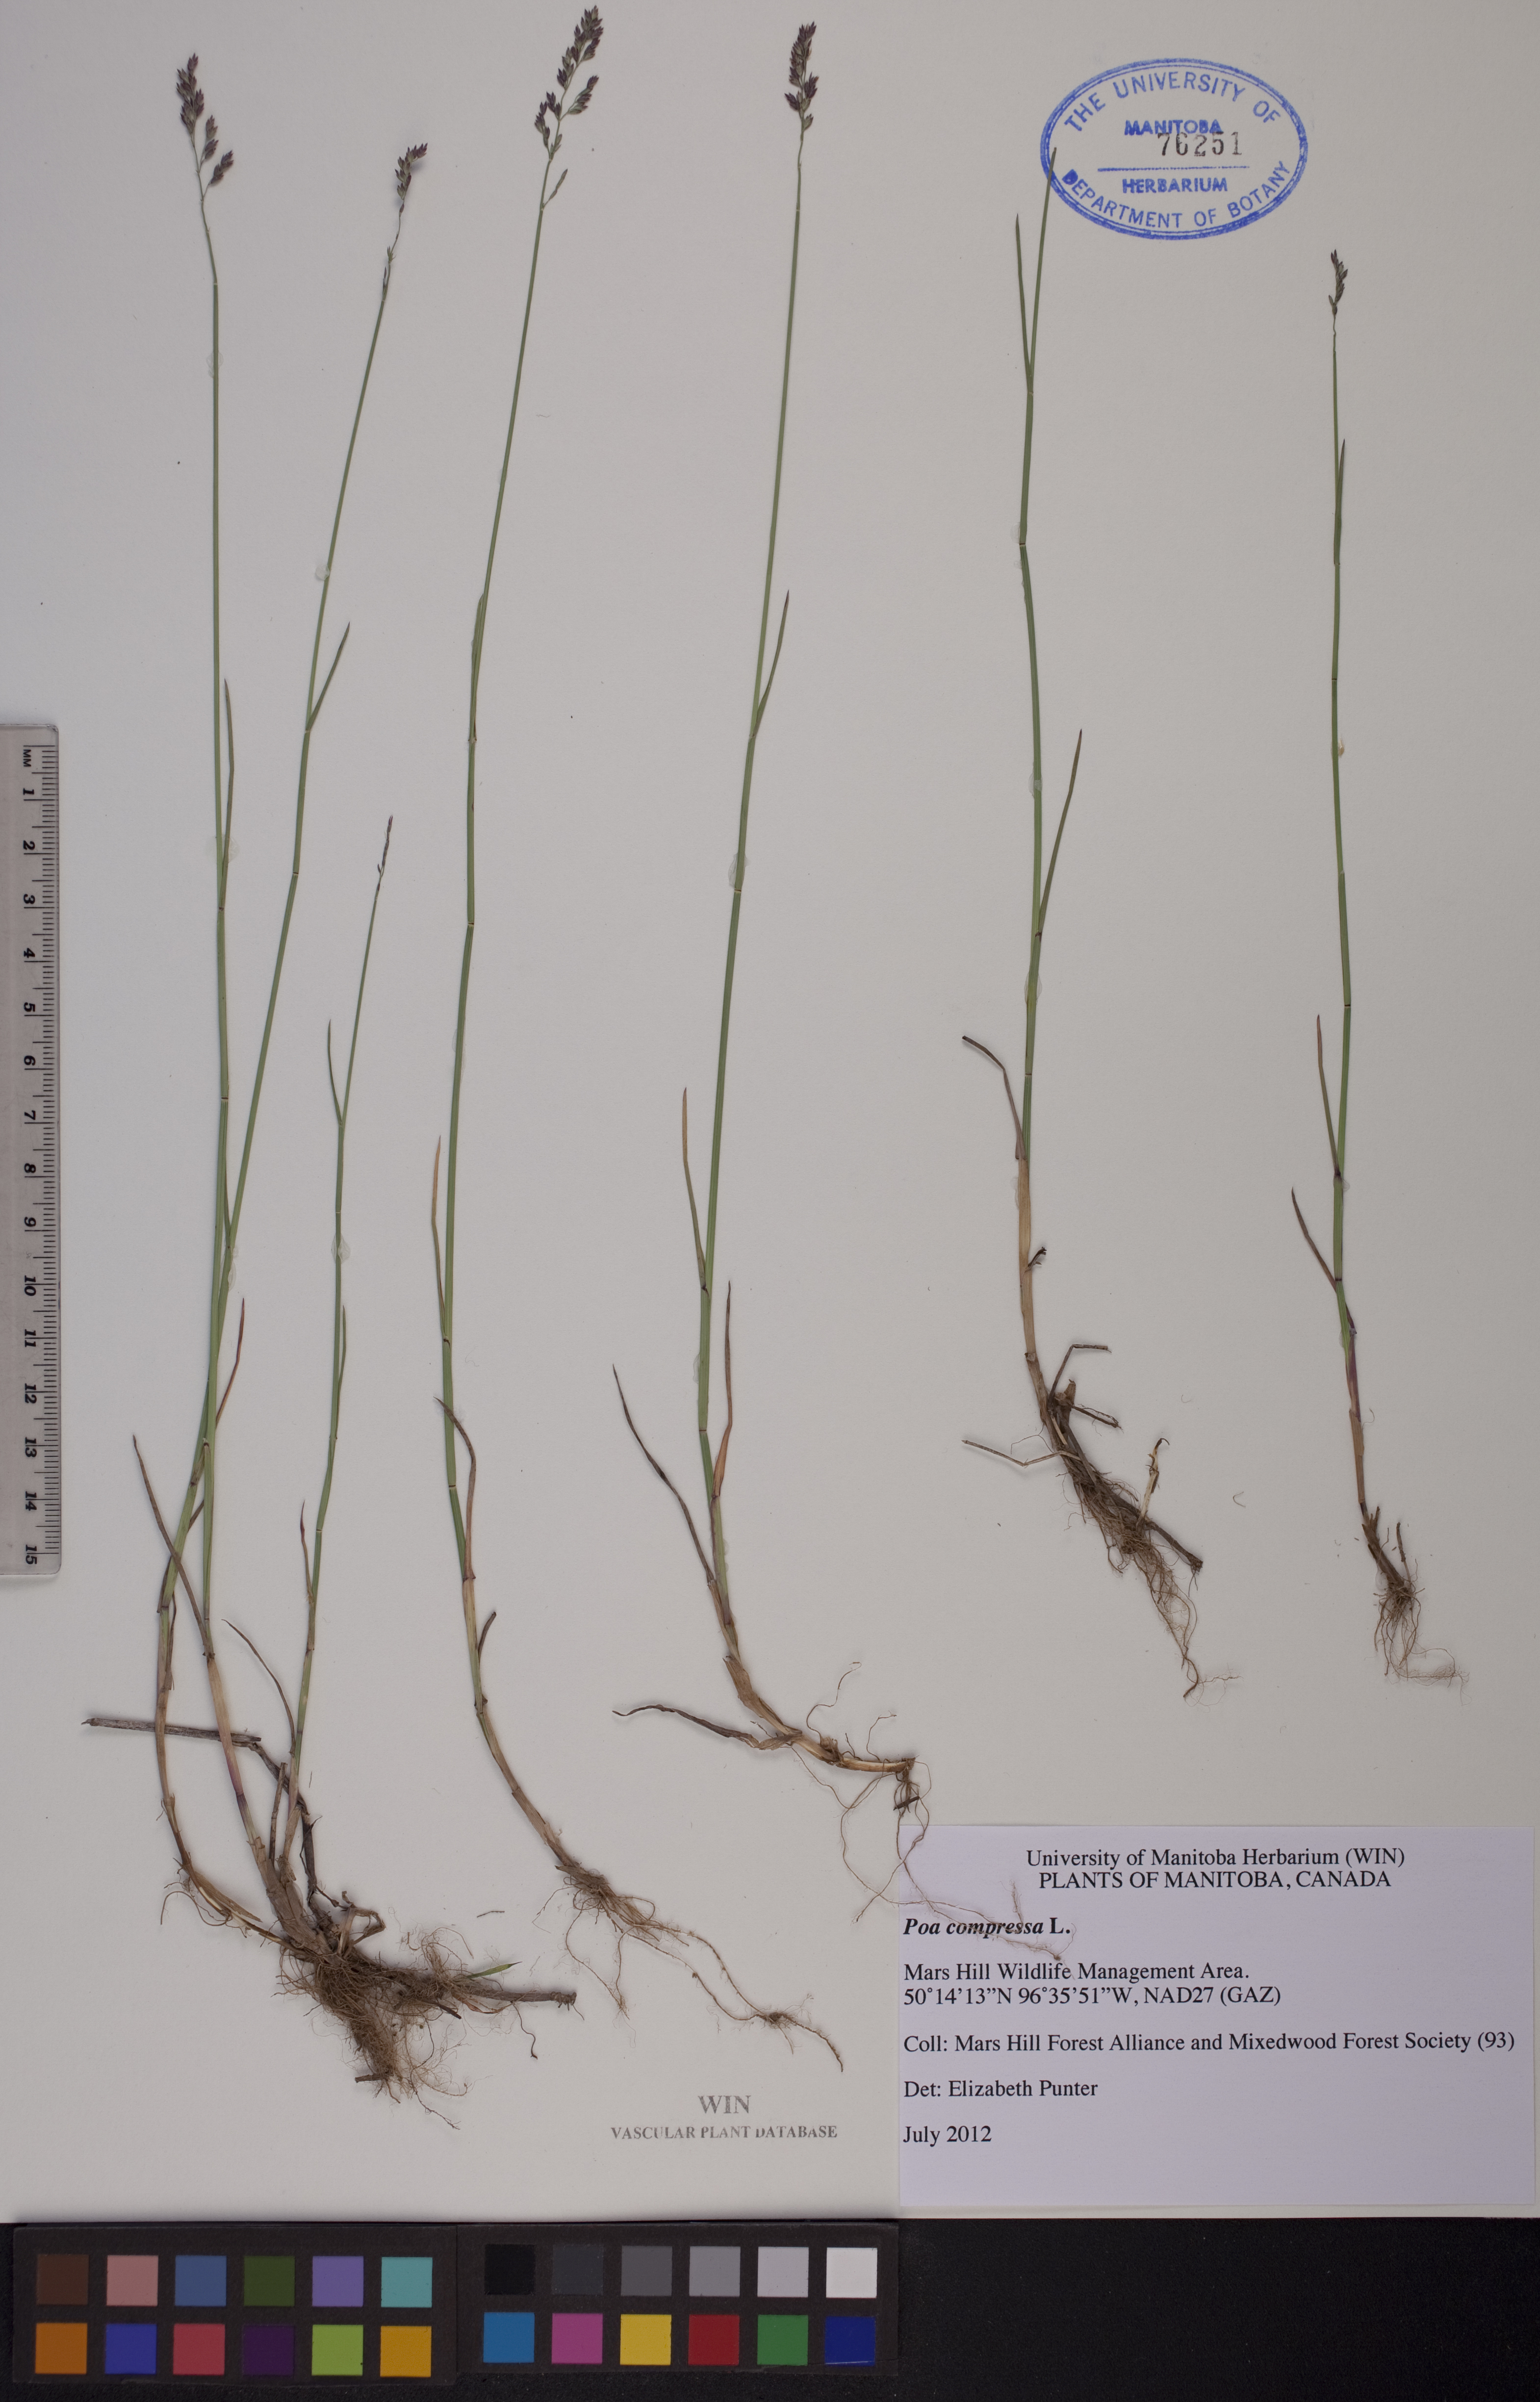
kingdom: Plantae
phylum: Tracheophyta
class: Liliopsida
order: Poales
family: Poaceae
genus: Poa
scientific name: Poa compressa
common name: Canada bluegrass
